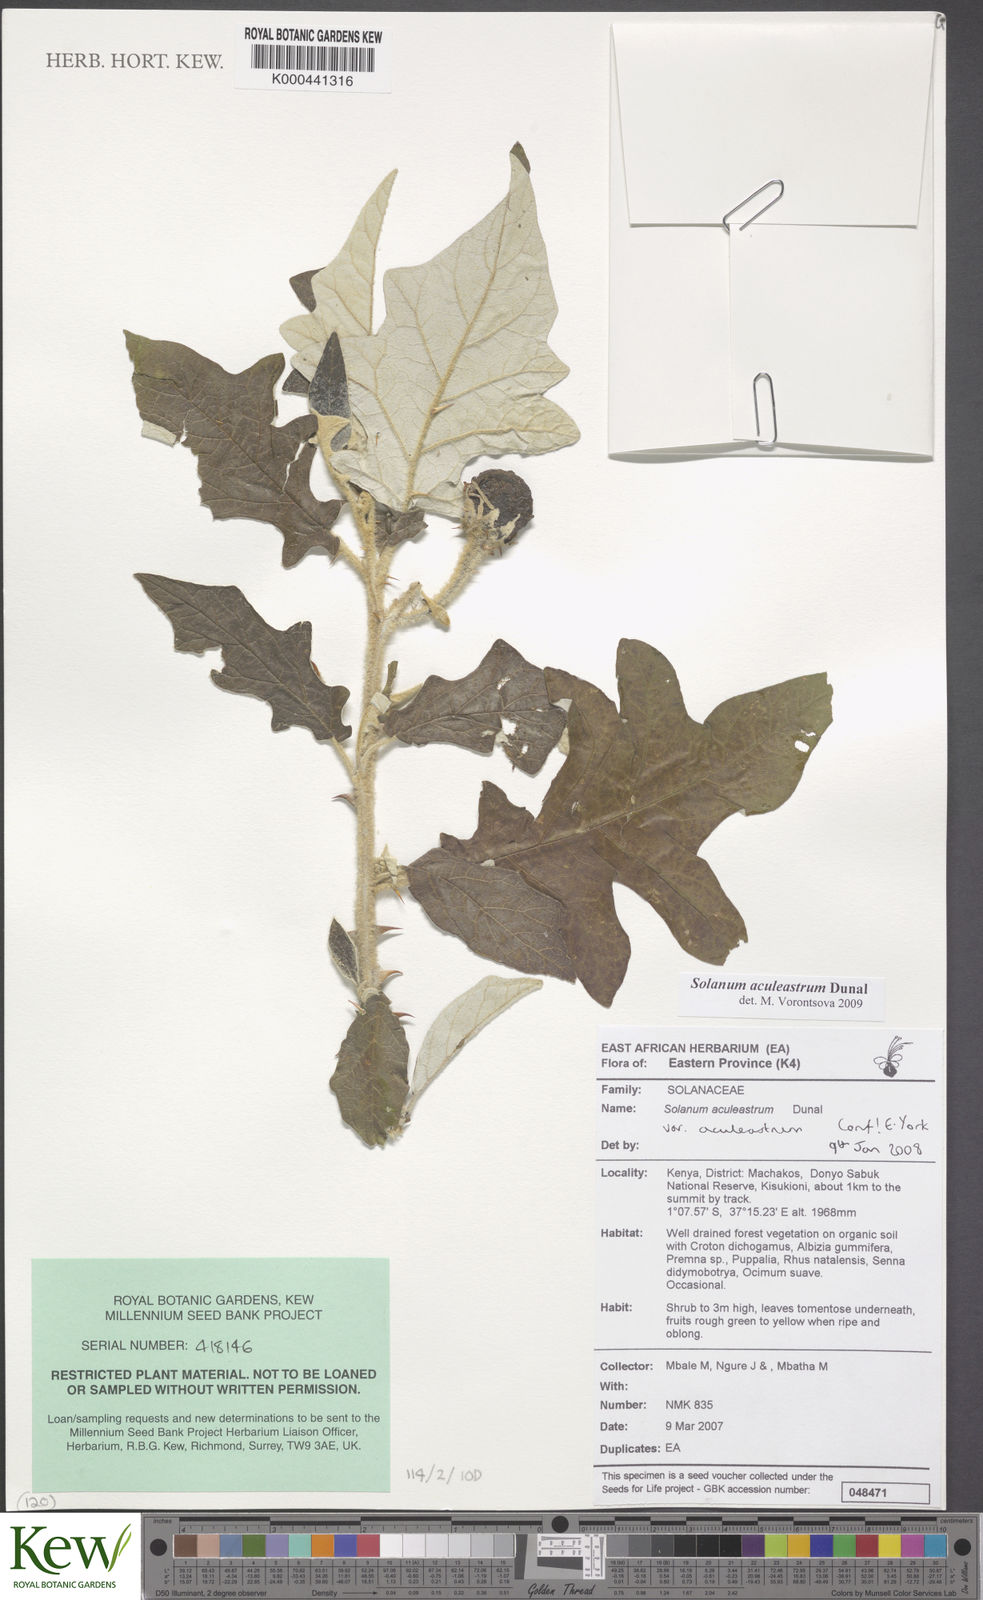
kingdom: Plantae
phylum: Tracheophyta
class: Magnoliopsida
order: Solanales
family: Solanaceae
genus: Solanum
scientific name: Solanum aculeastrum
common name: Goat bitter-apple
